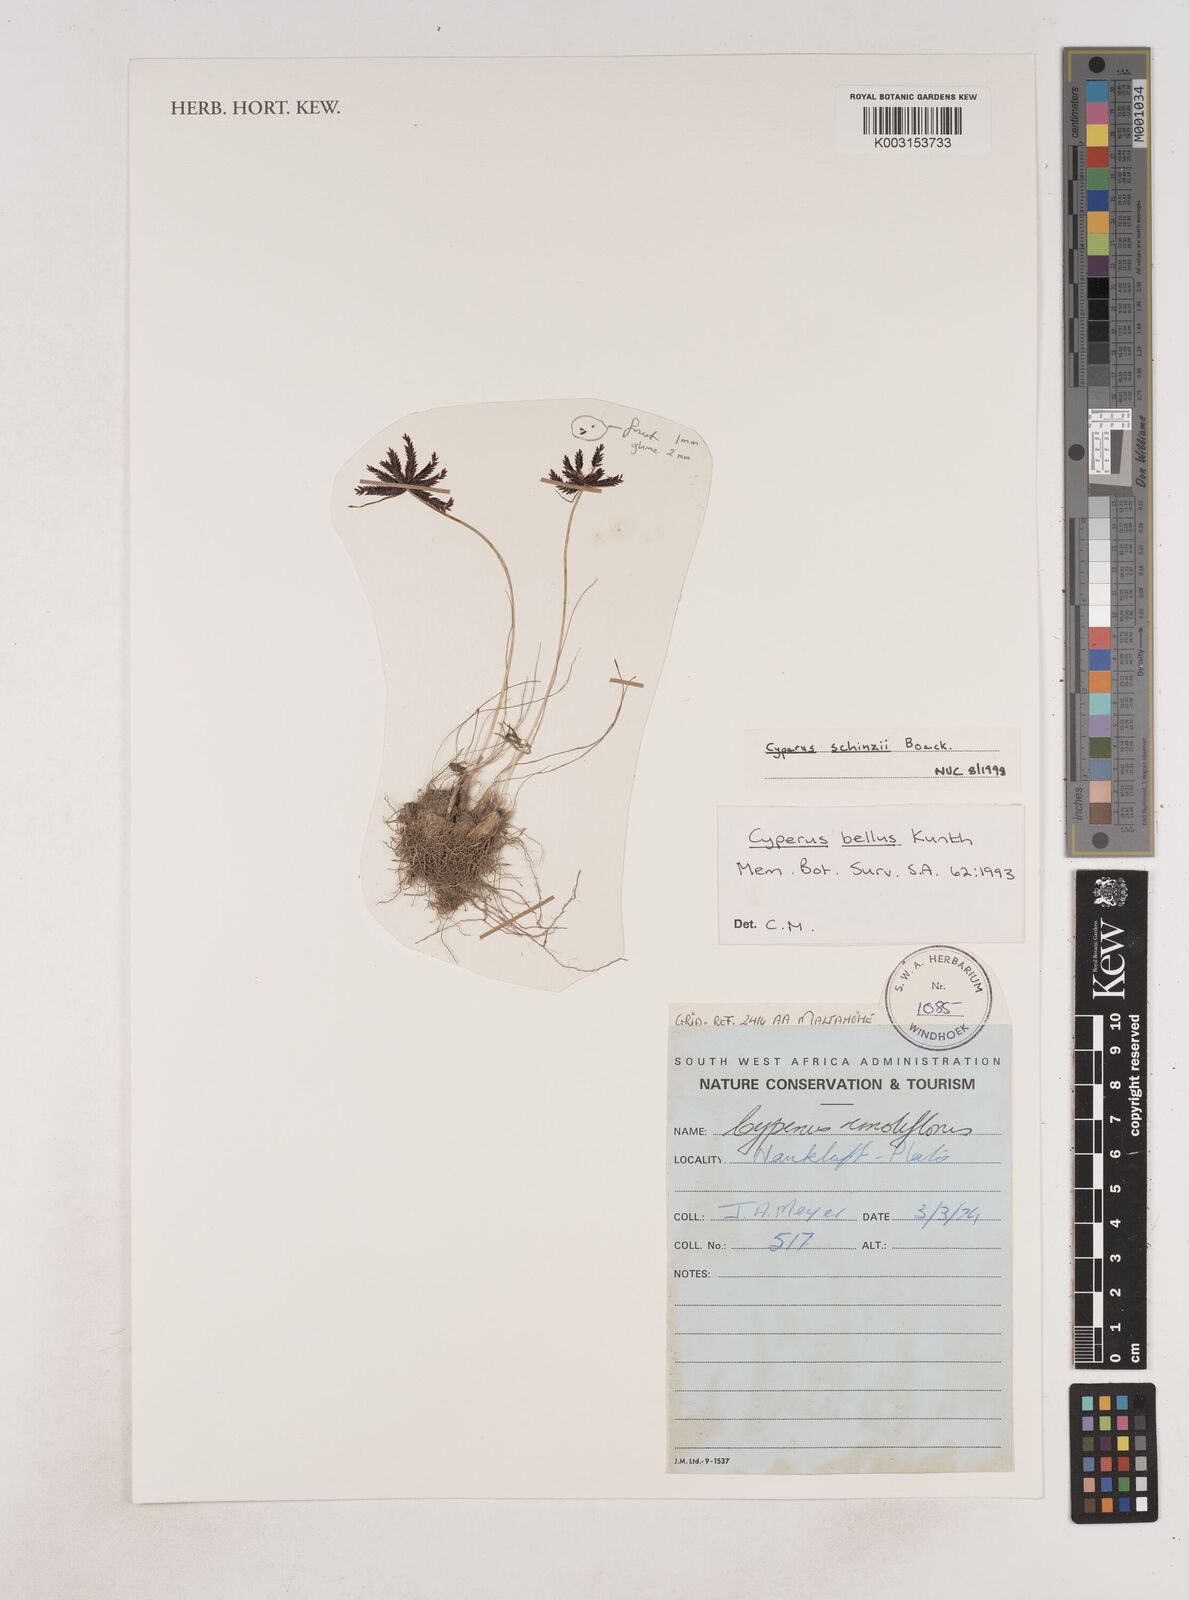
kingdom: Plantae
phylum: Tracheophyta
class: Liliopsida
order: Poales
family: Cyperaceae
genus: Cyperus
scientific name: Cyperus bellus
